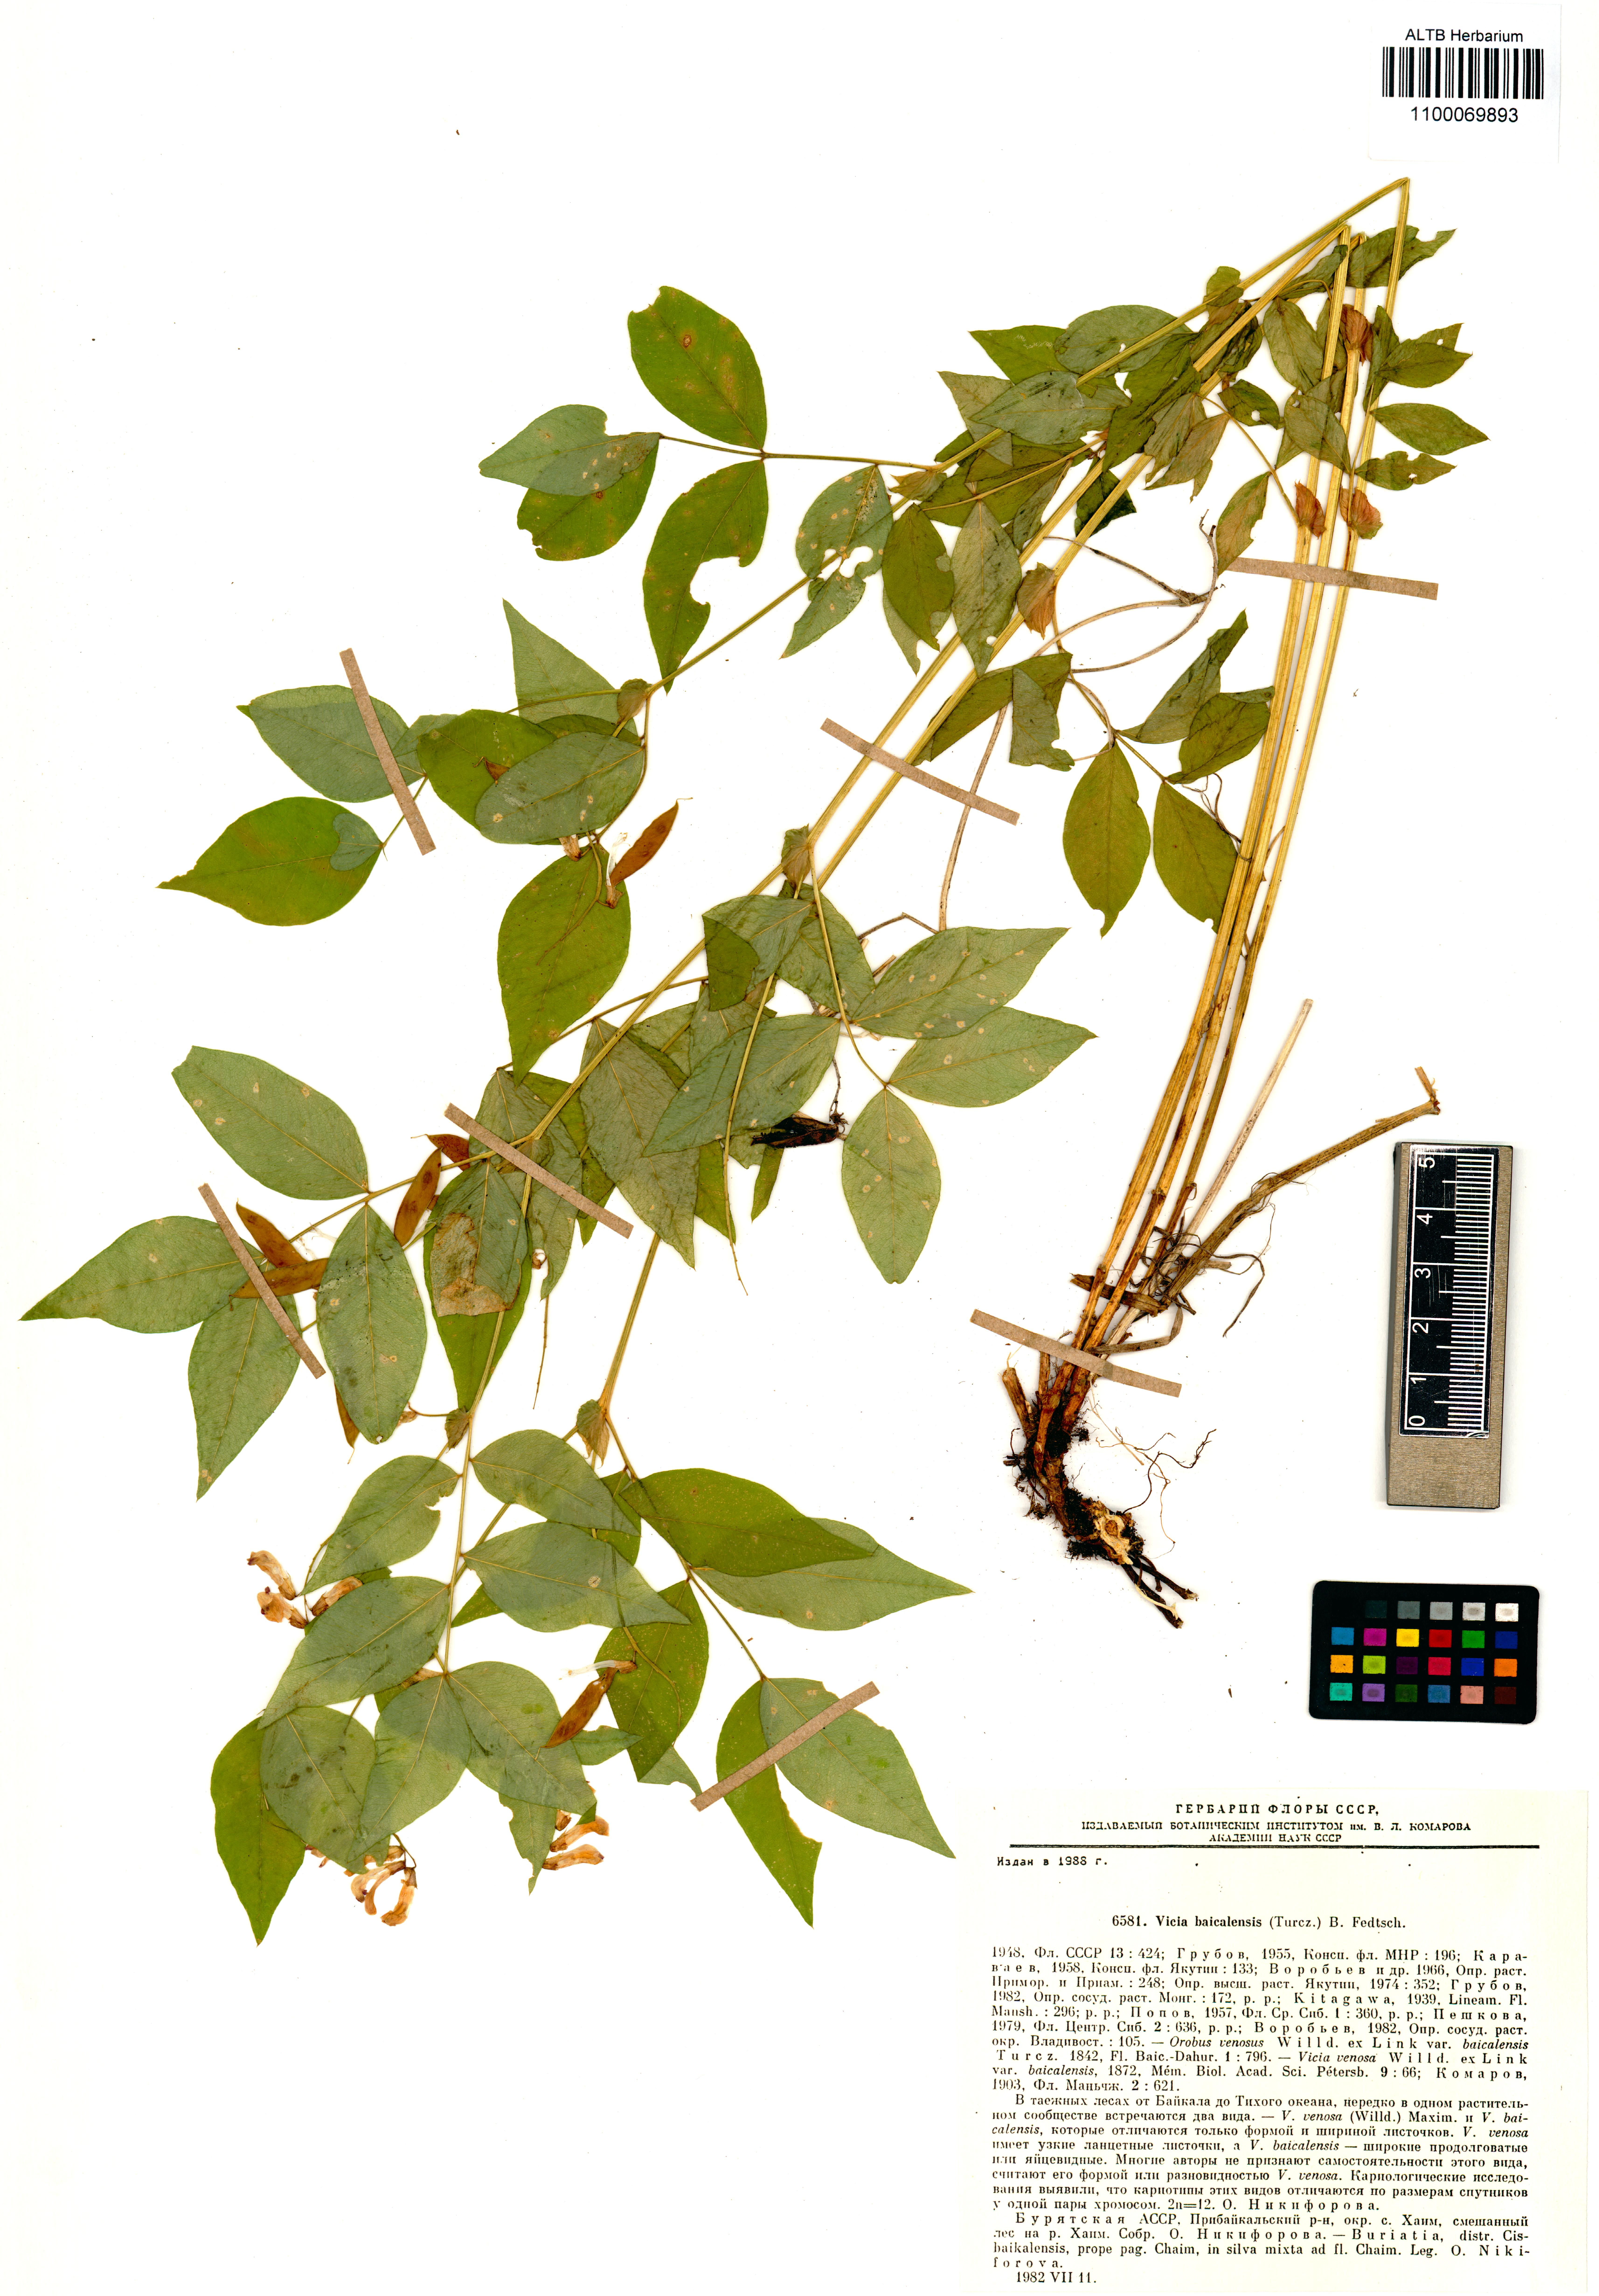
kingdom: Plantae
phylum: Tracheophyta
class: Magnoliopsida
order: Fabales
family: Fabaceae
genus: Vicia
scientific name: Vicia ramuliflora
